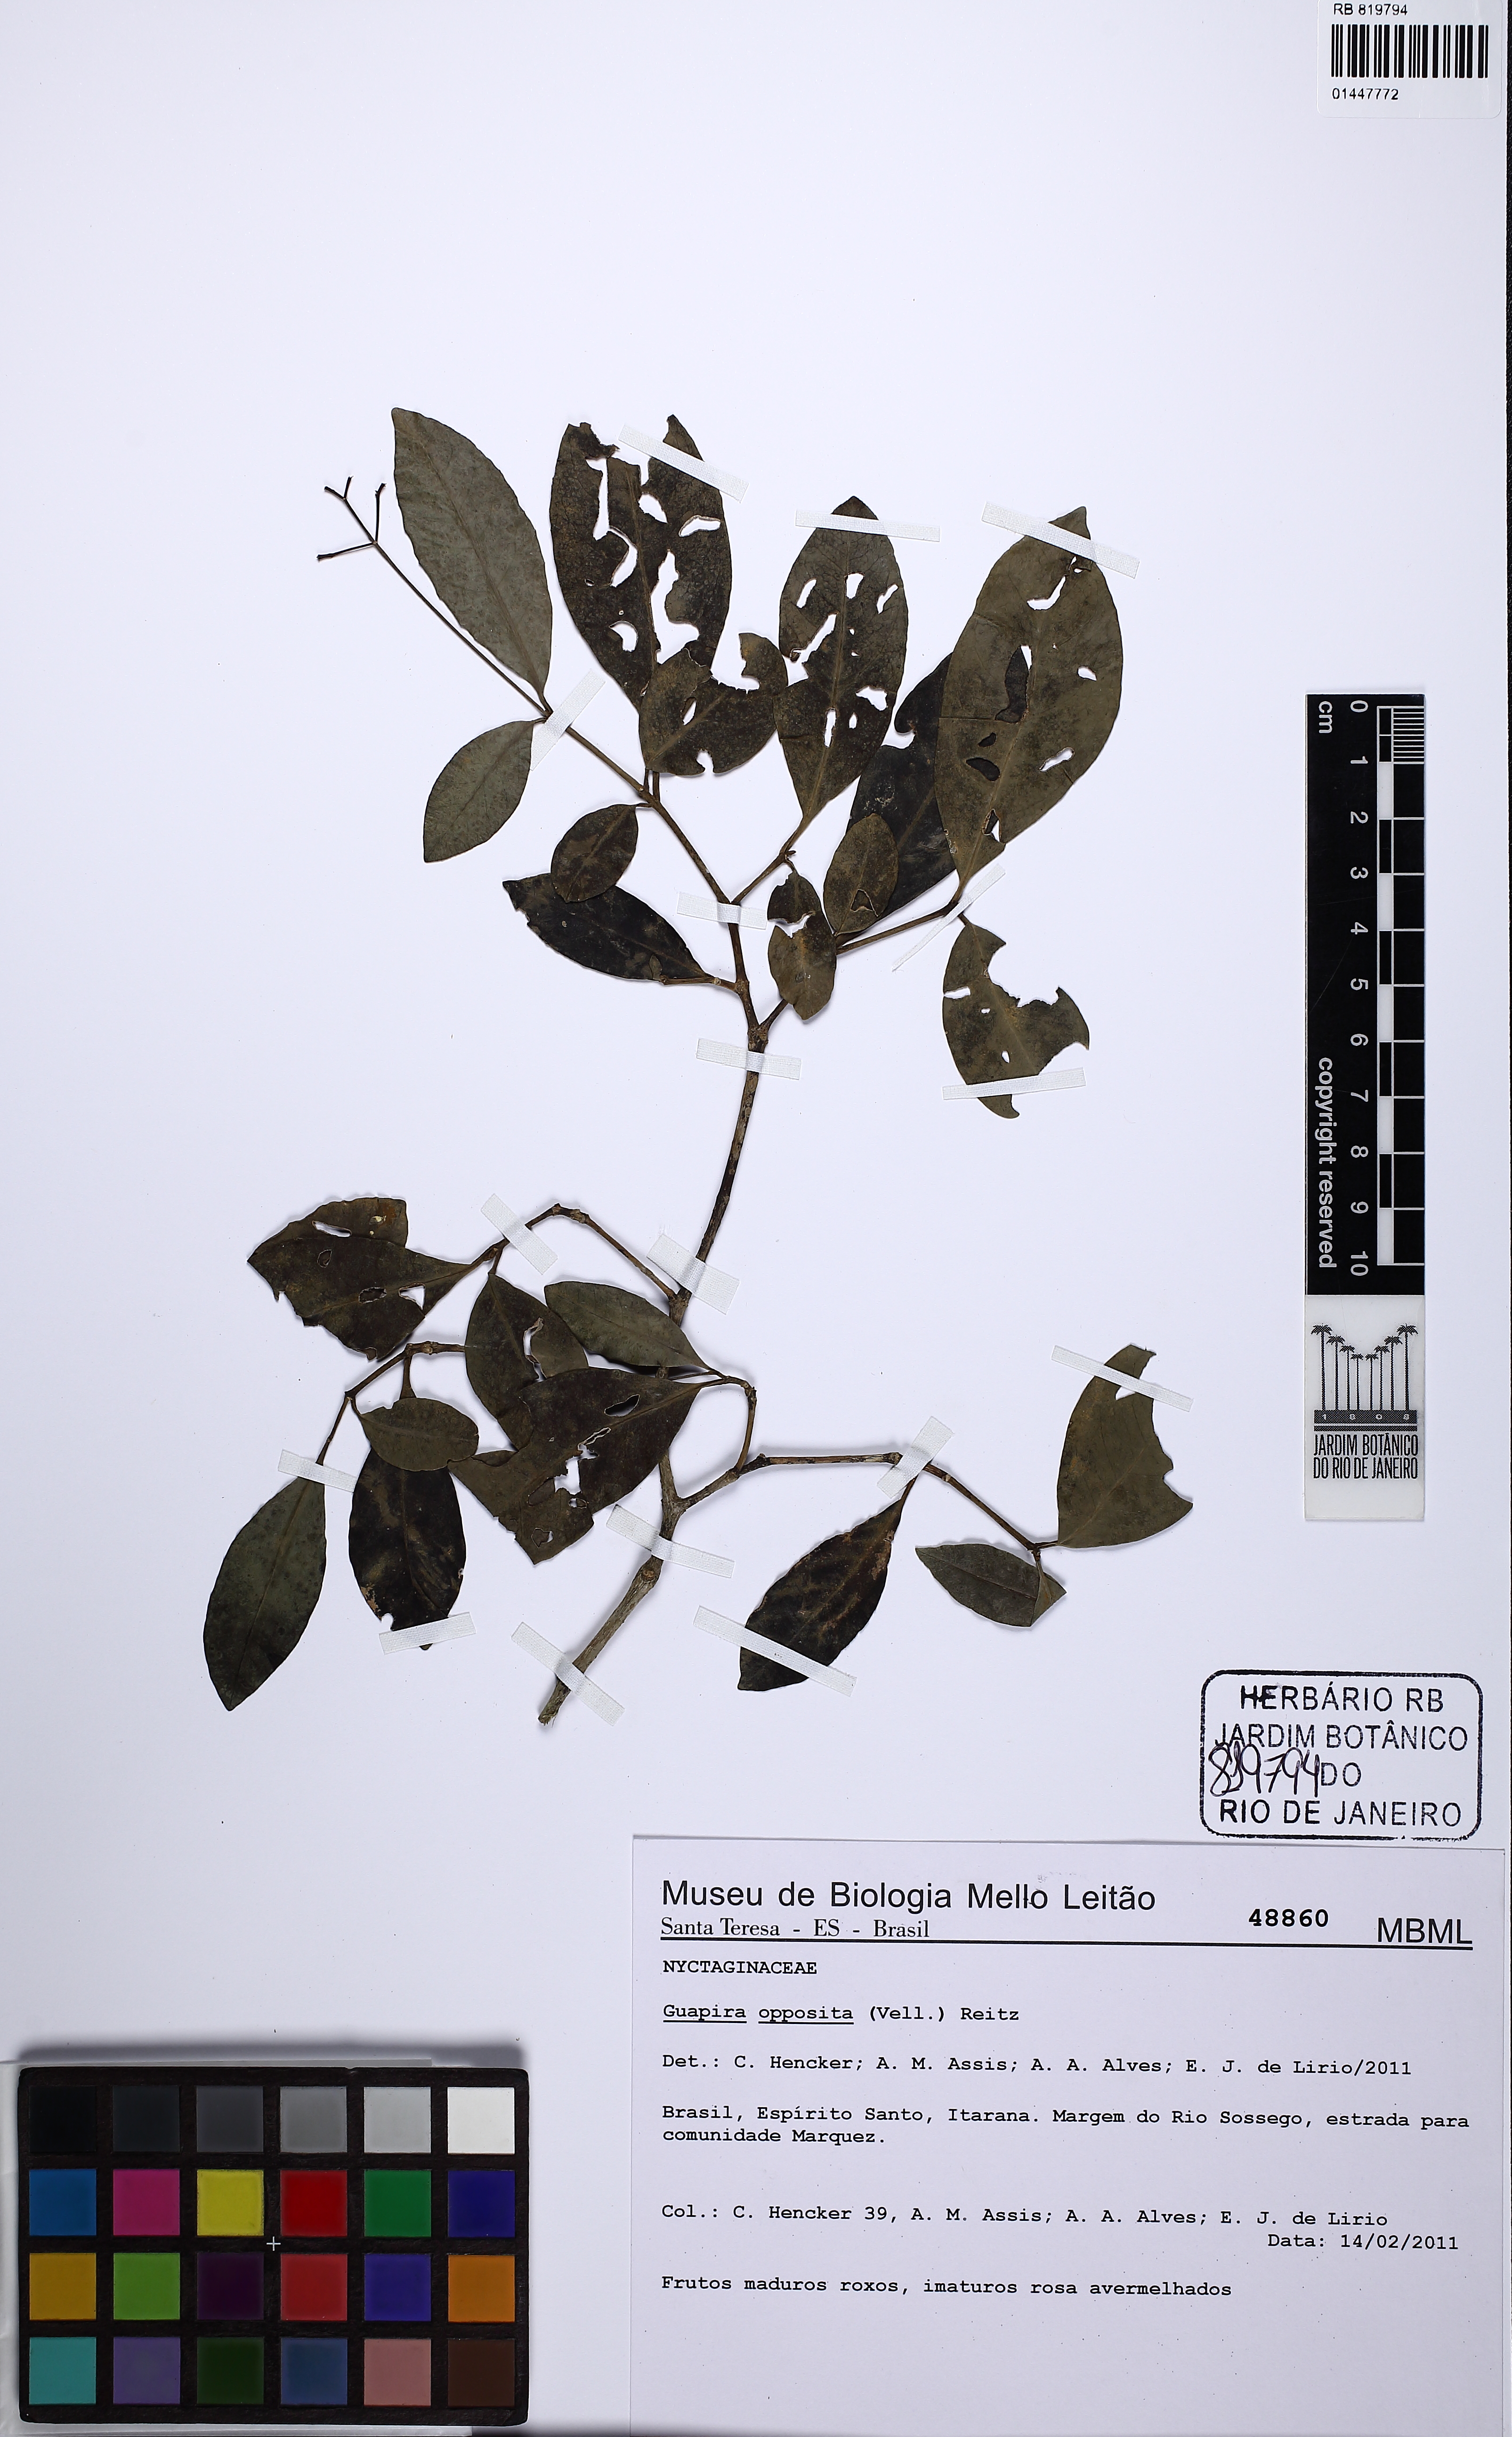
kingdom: Plantae
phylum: Tracheophyta
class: Magnoliopsida
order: Caryophyllales
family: Nyctaginaceae
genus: Guapira
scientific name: Guapira opposita
